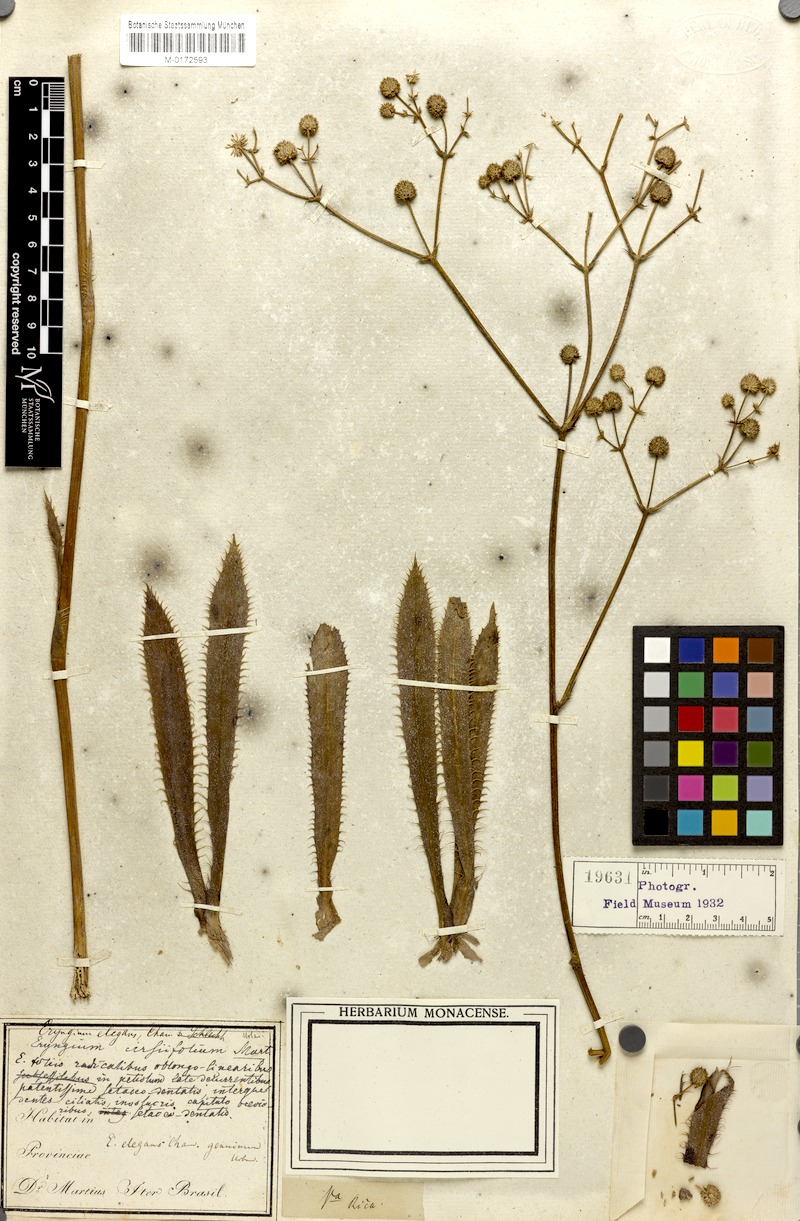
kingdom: Plantae
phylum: Tracheophyta
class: Magnoliopsida
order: Apiales
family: Apiaceae
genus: Eryngium
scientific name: Eryngium elegans
